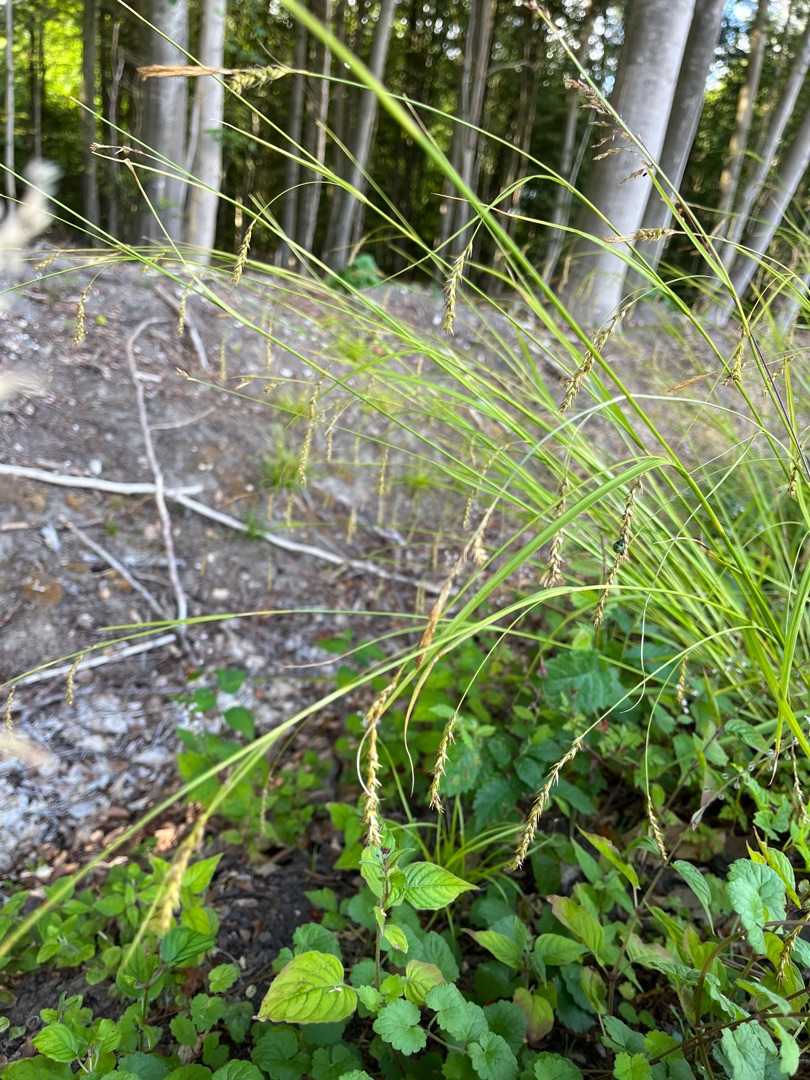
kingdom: Plantae
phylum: Tracheophyta
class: Liliopsida
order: Poales
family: Cyperaceae
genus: Carex
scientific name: Carex sylvatica
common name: Skov-star
